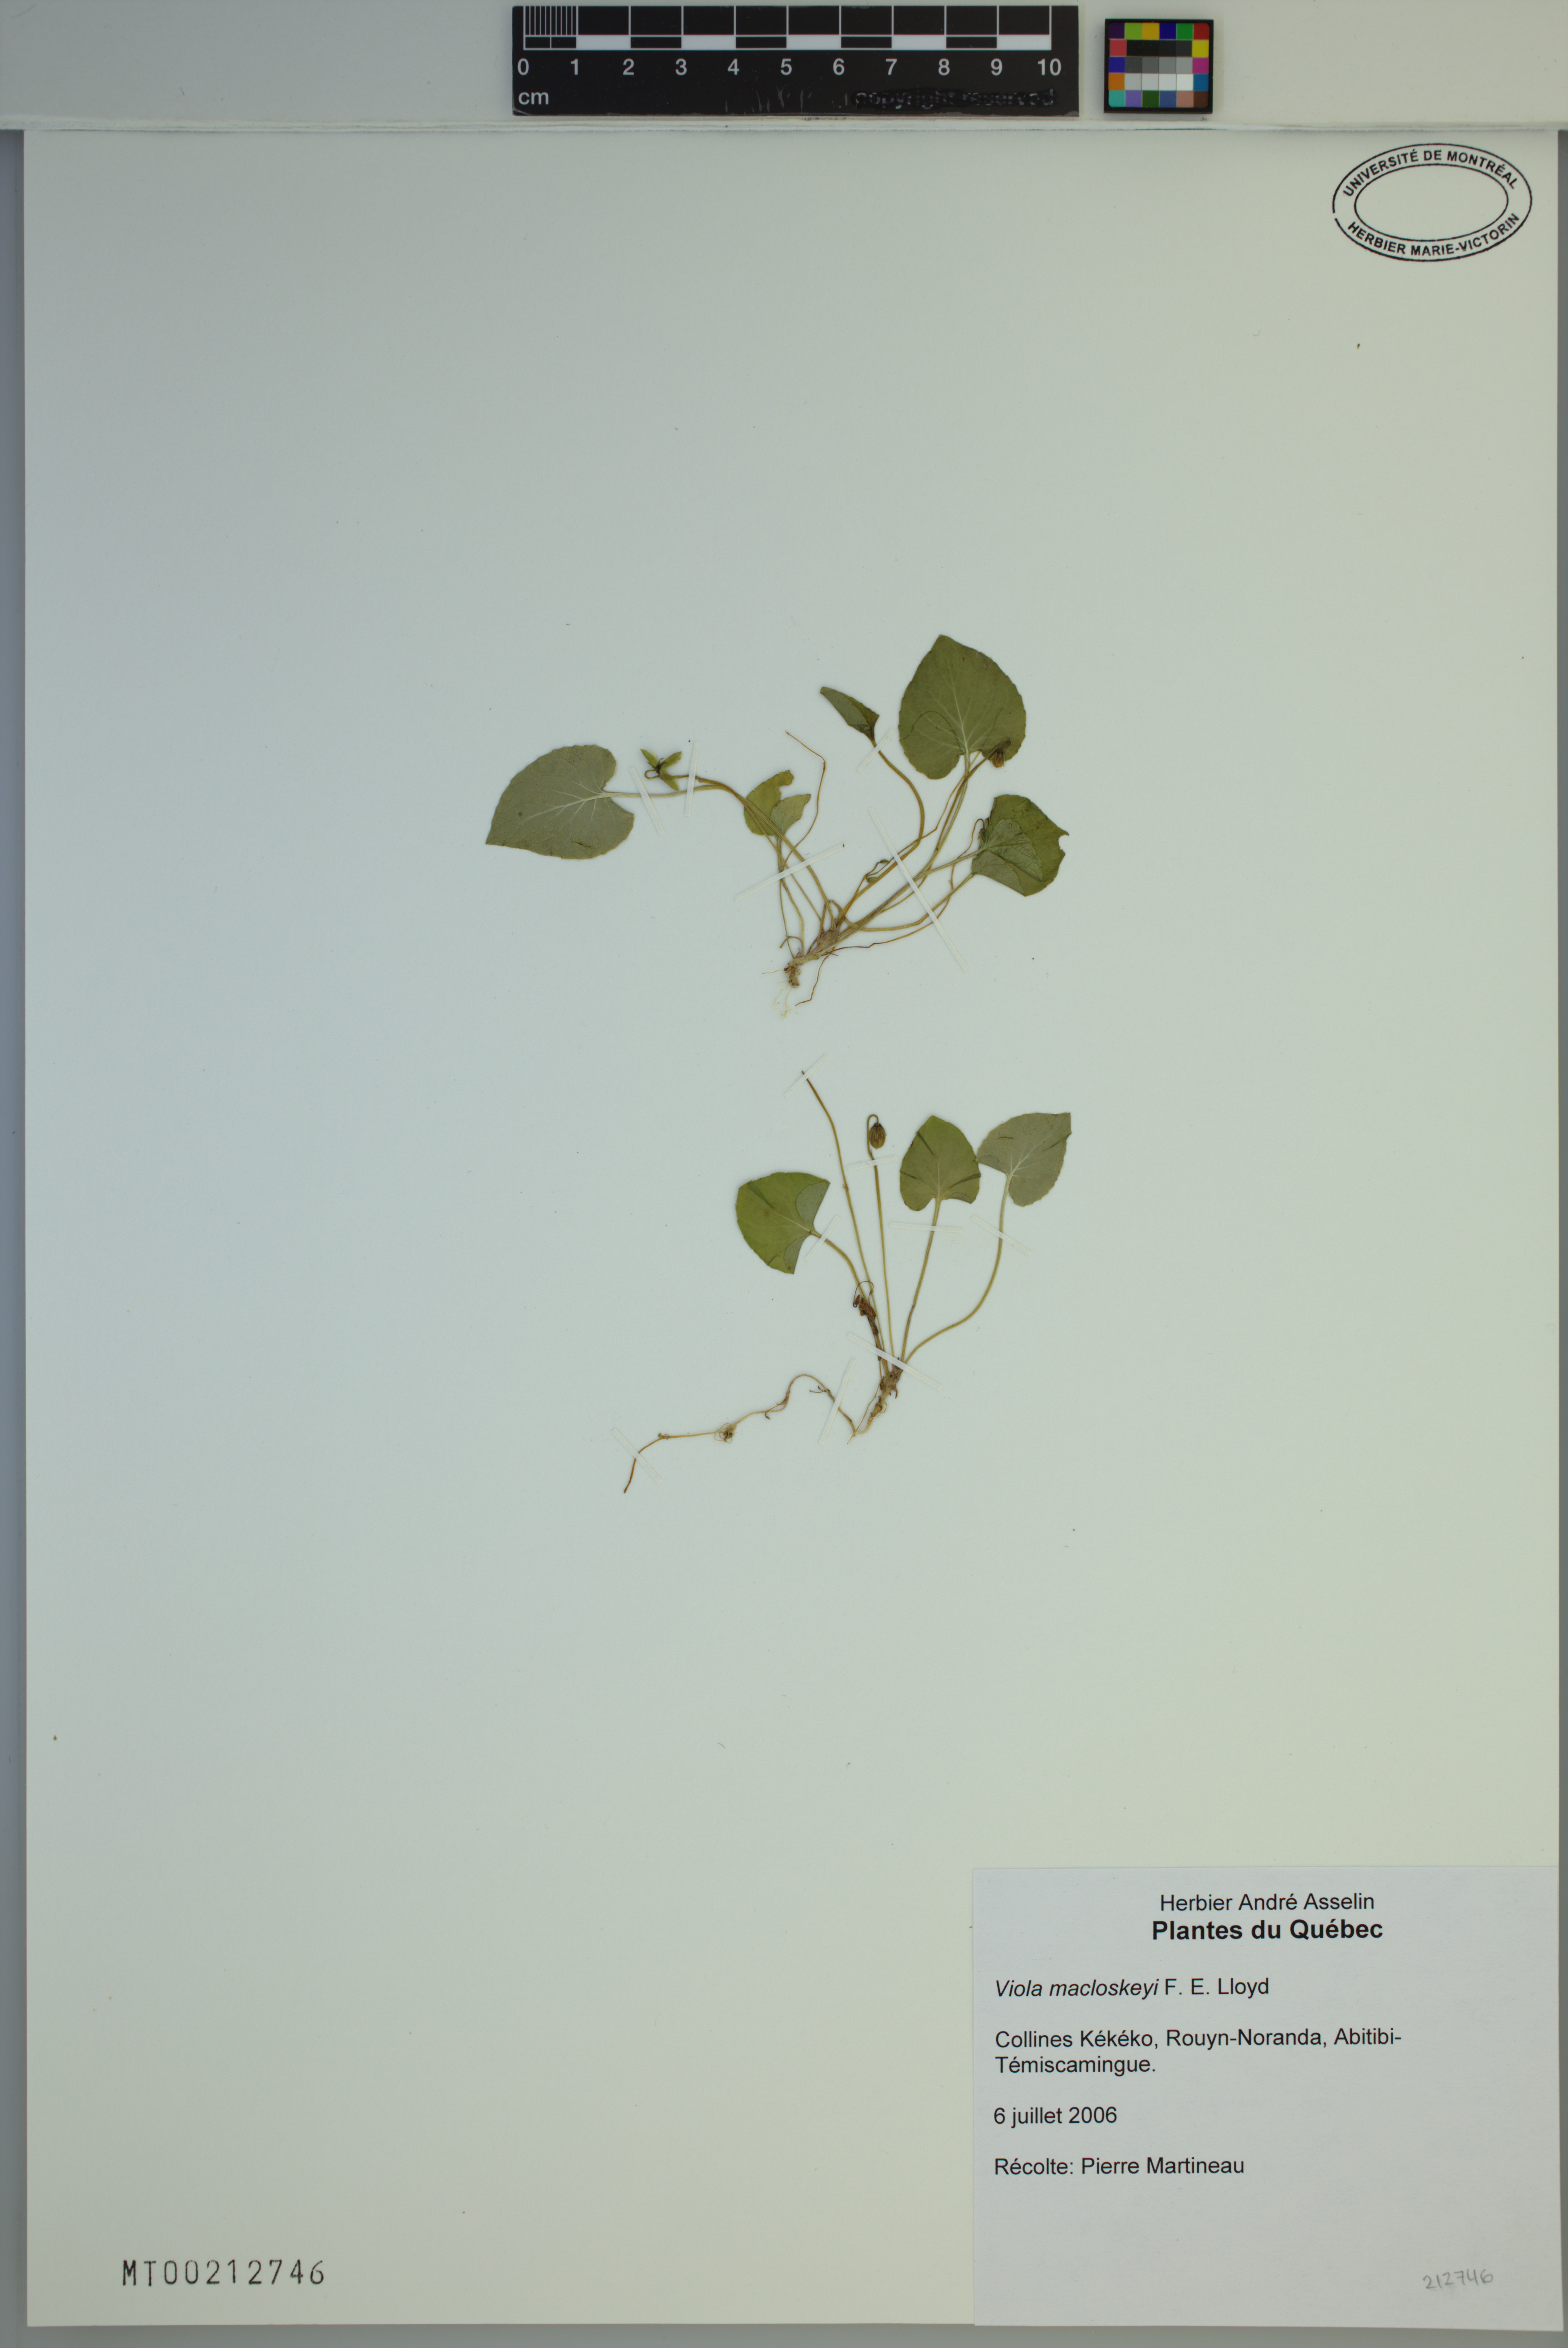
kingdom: Plantae
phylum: Tracheophyta
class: Magnoliopsida
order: Malpighiales
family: Violaceae
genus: Viola
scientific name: Viola macloskeyi
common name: Macloskey's violet
